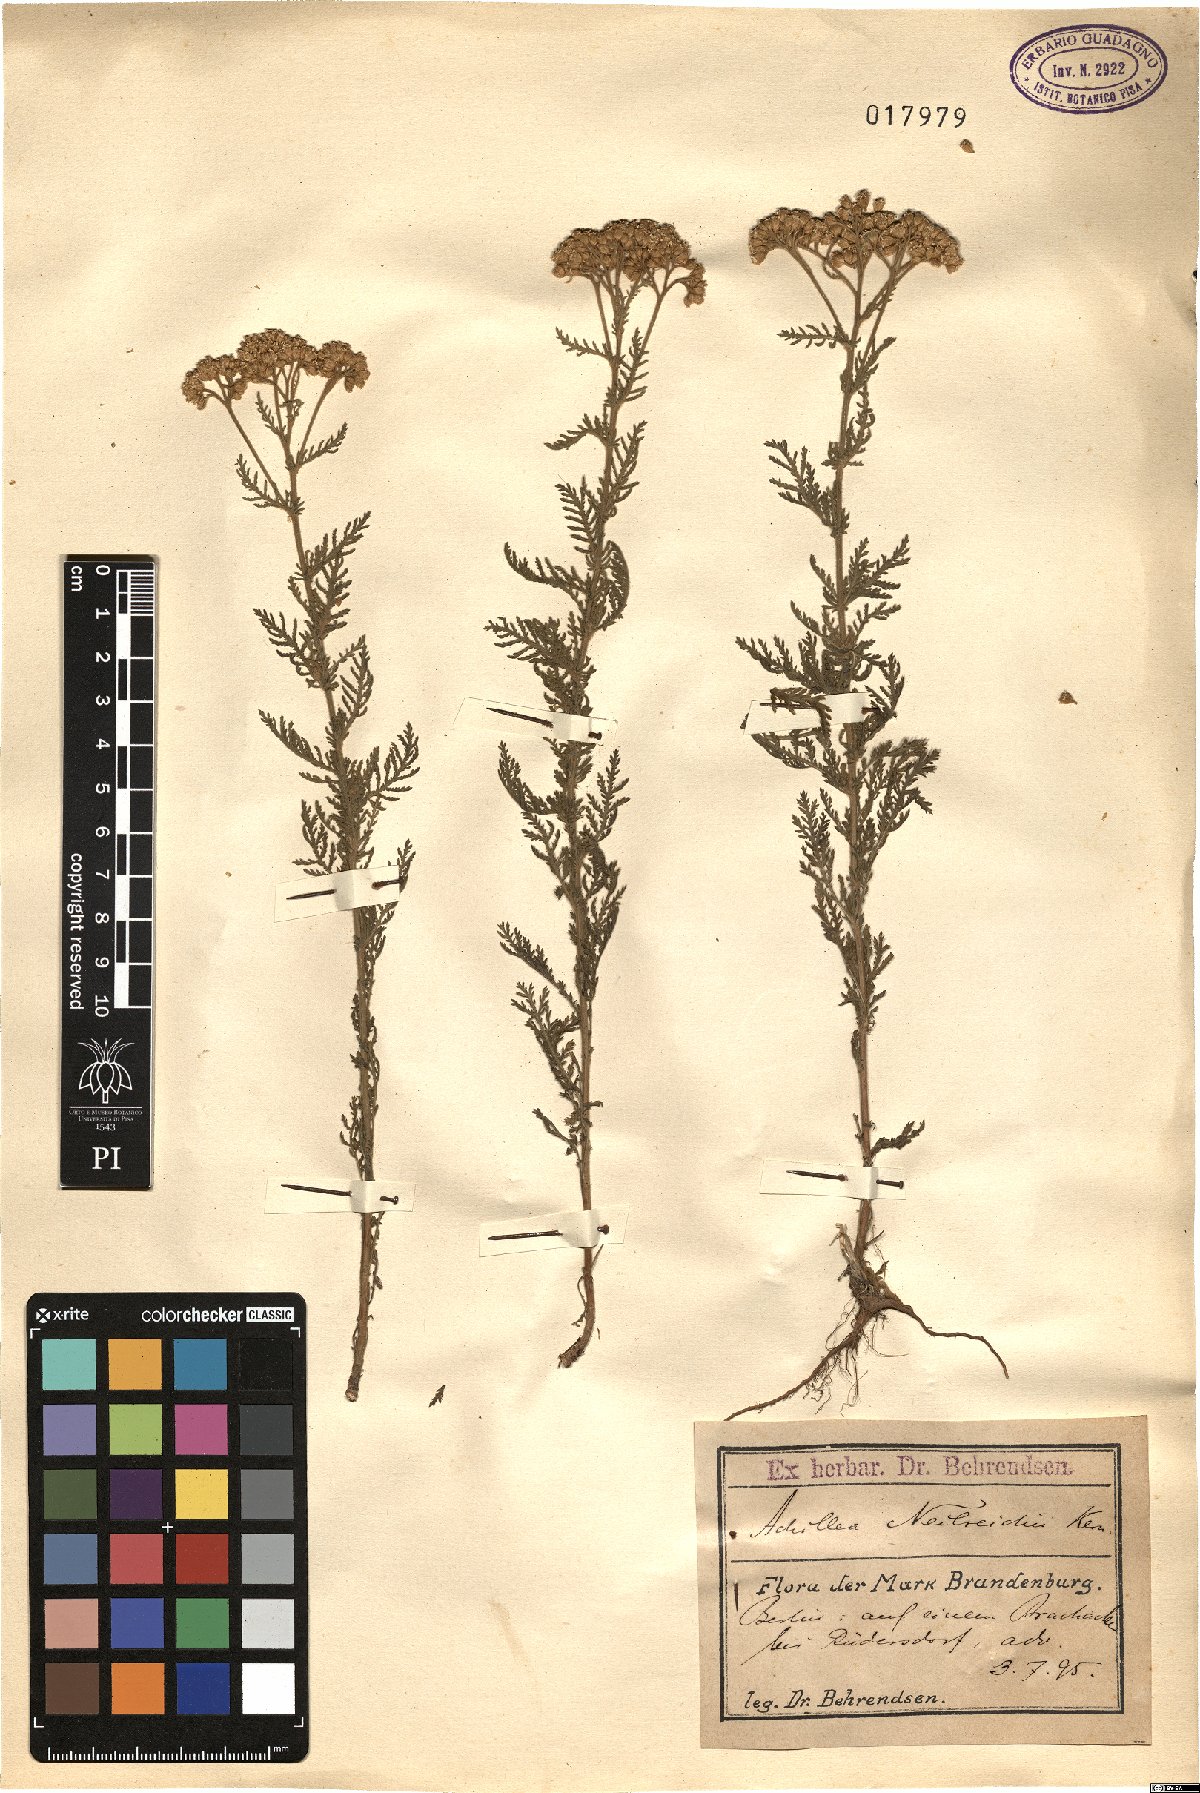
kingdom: Plantae
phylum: Tracheophyta
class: Magnoliopsida
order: Asterales
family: Asteraceae
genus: Achillea
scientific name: Achillea nobilis
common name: Noble yarrow
